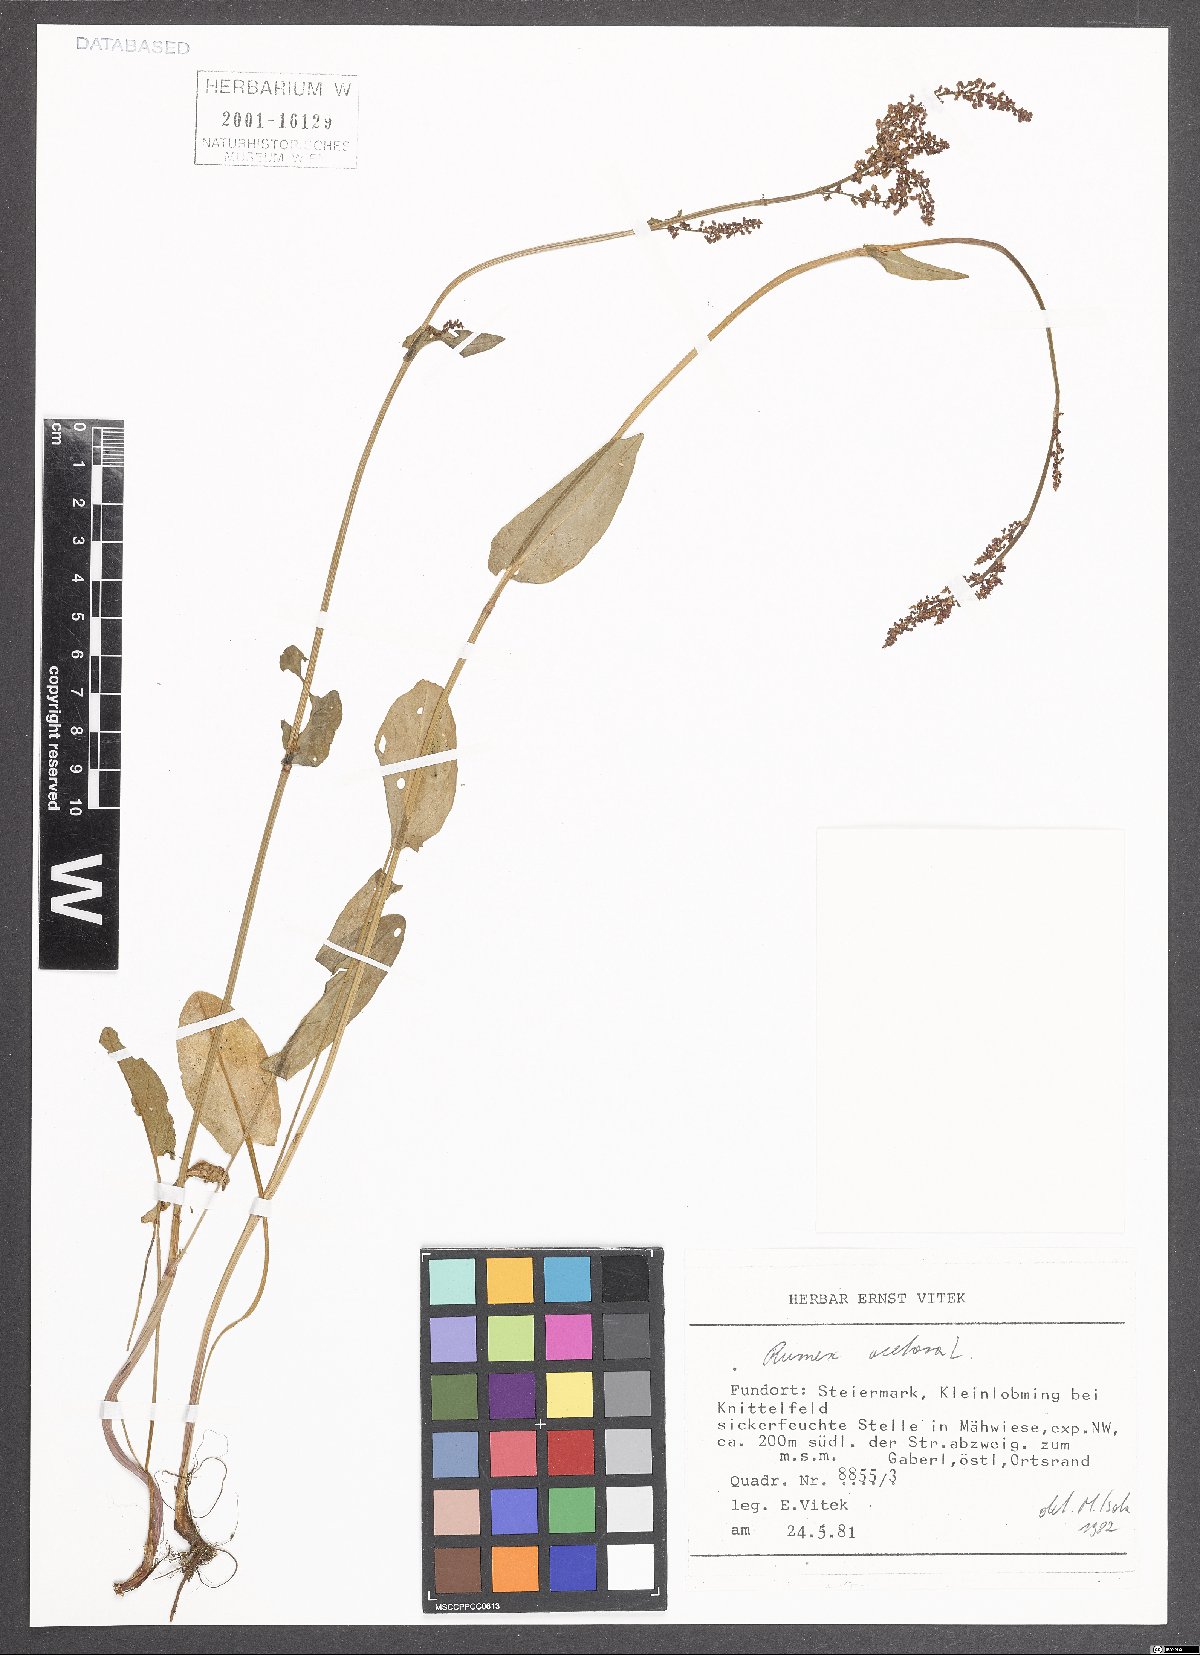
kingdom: Plantae
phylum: Tracheophyta
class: Magnoliopsida
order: Caryophyllales
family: Polygonaceae
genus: Rumex
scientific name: Rumex acetosa
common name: Garden sorrel
